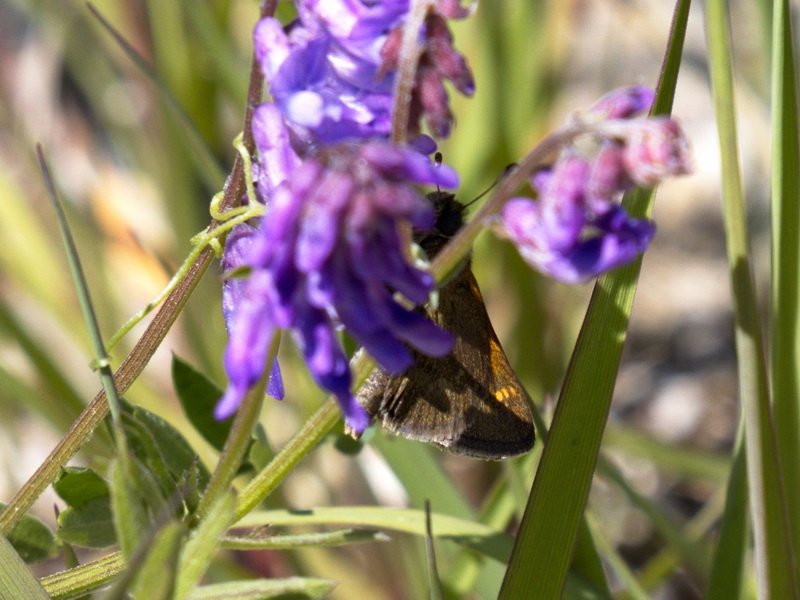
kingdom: Animalia
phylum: Arthropoda
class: Insecta
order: Lepidoptera
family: Hesperiidae
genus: Polites
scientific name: Polites
